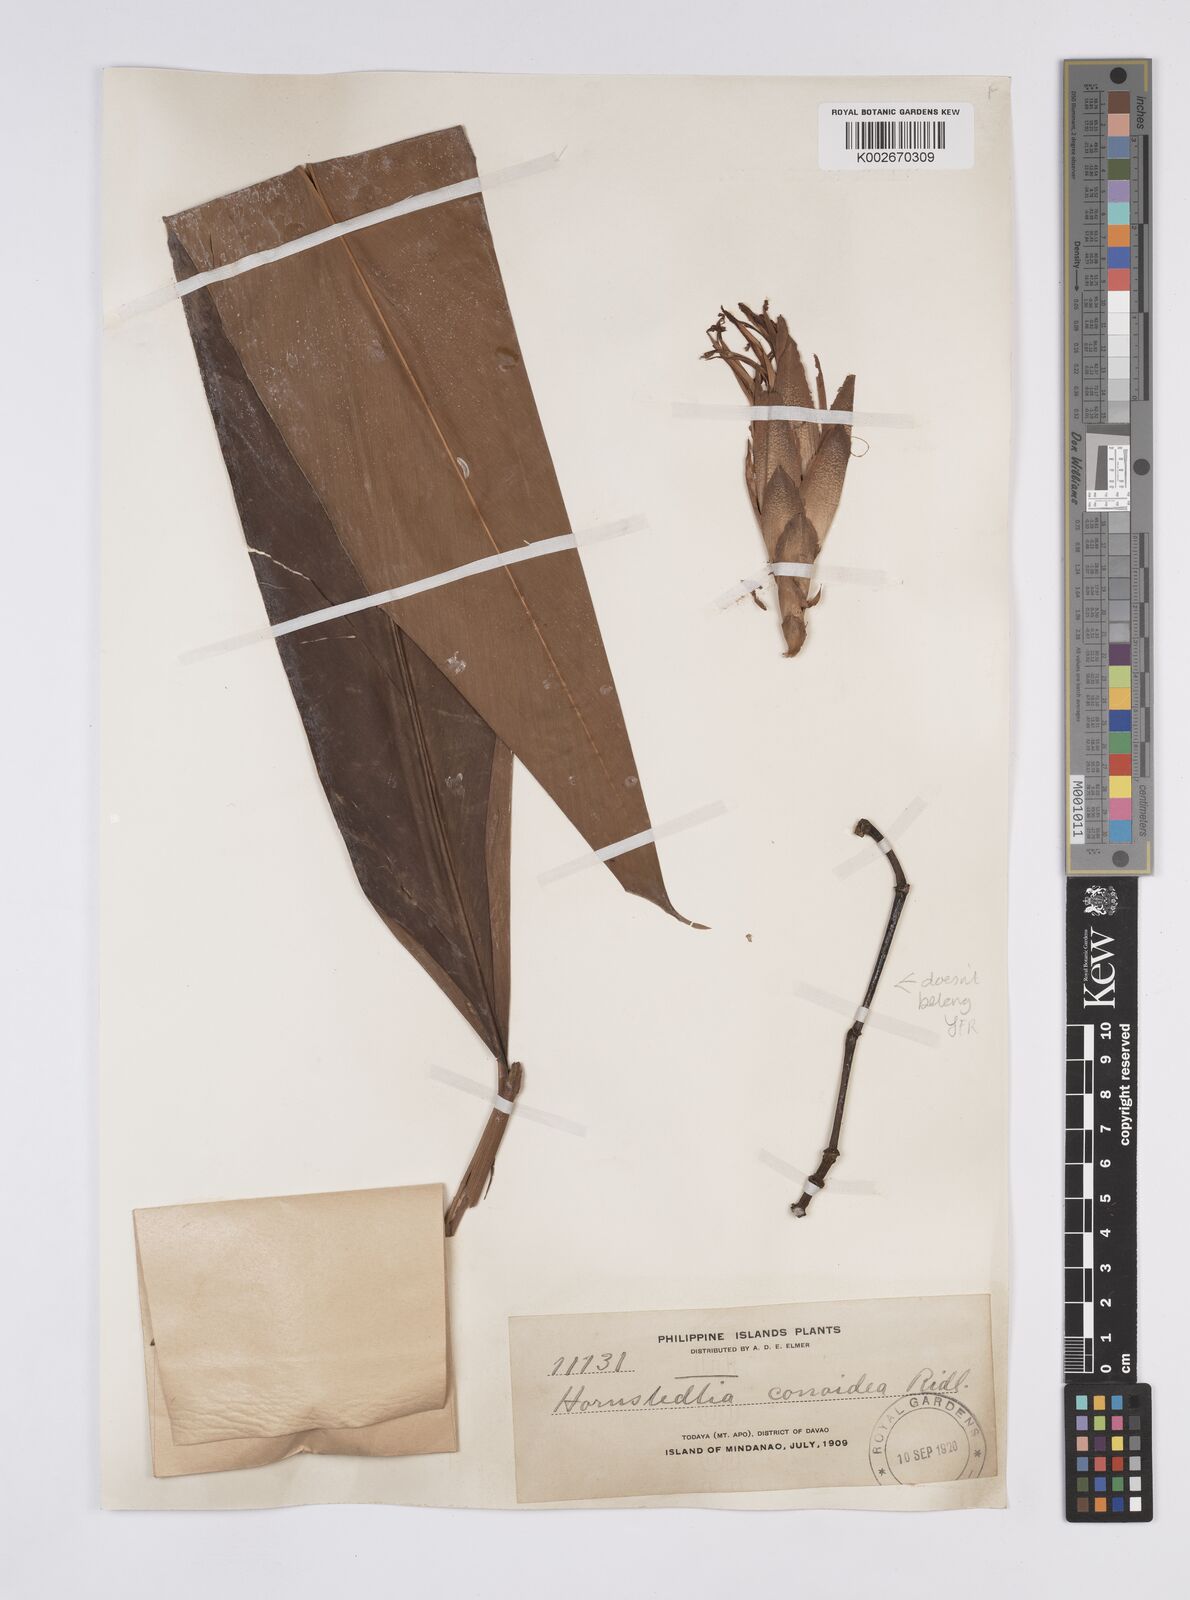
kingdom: Plantae
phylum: Tracheophyta
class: Liliopsida
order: Zingiberales
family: Zingiberaceae
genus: Hornstedtia
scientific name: Hornstedtia conoidea
